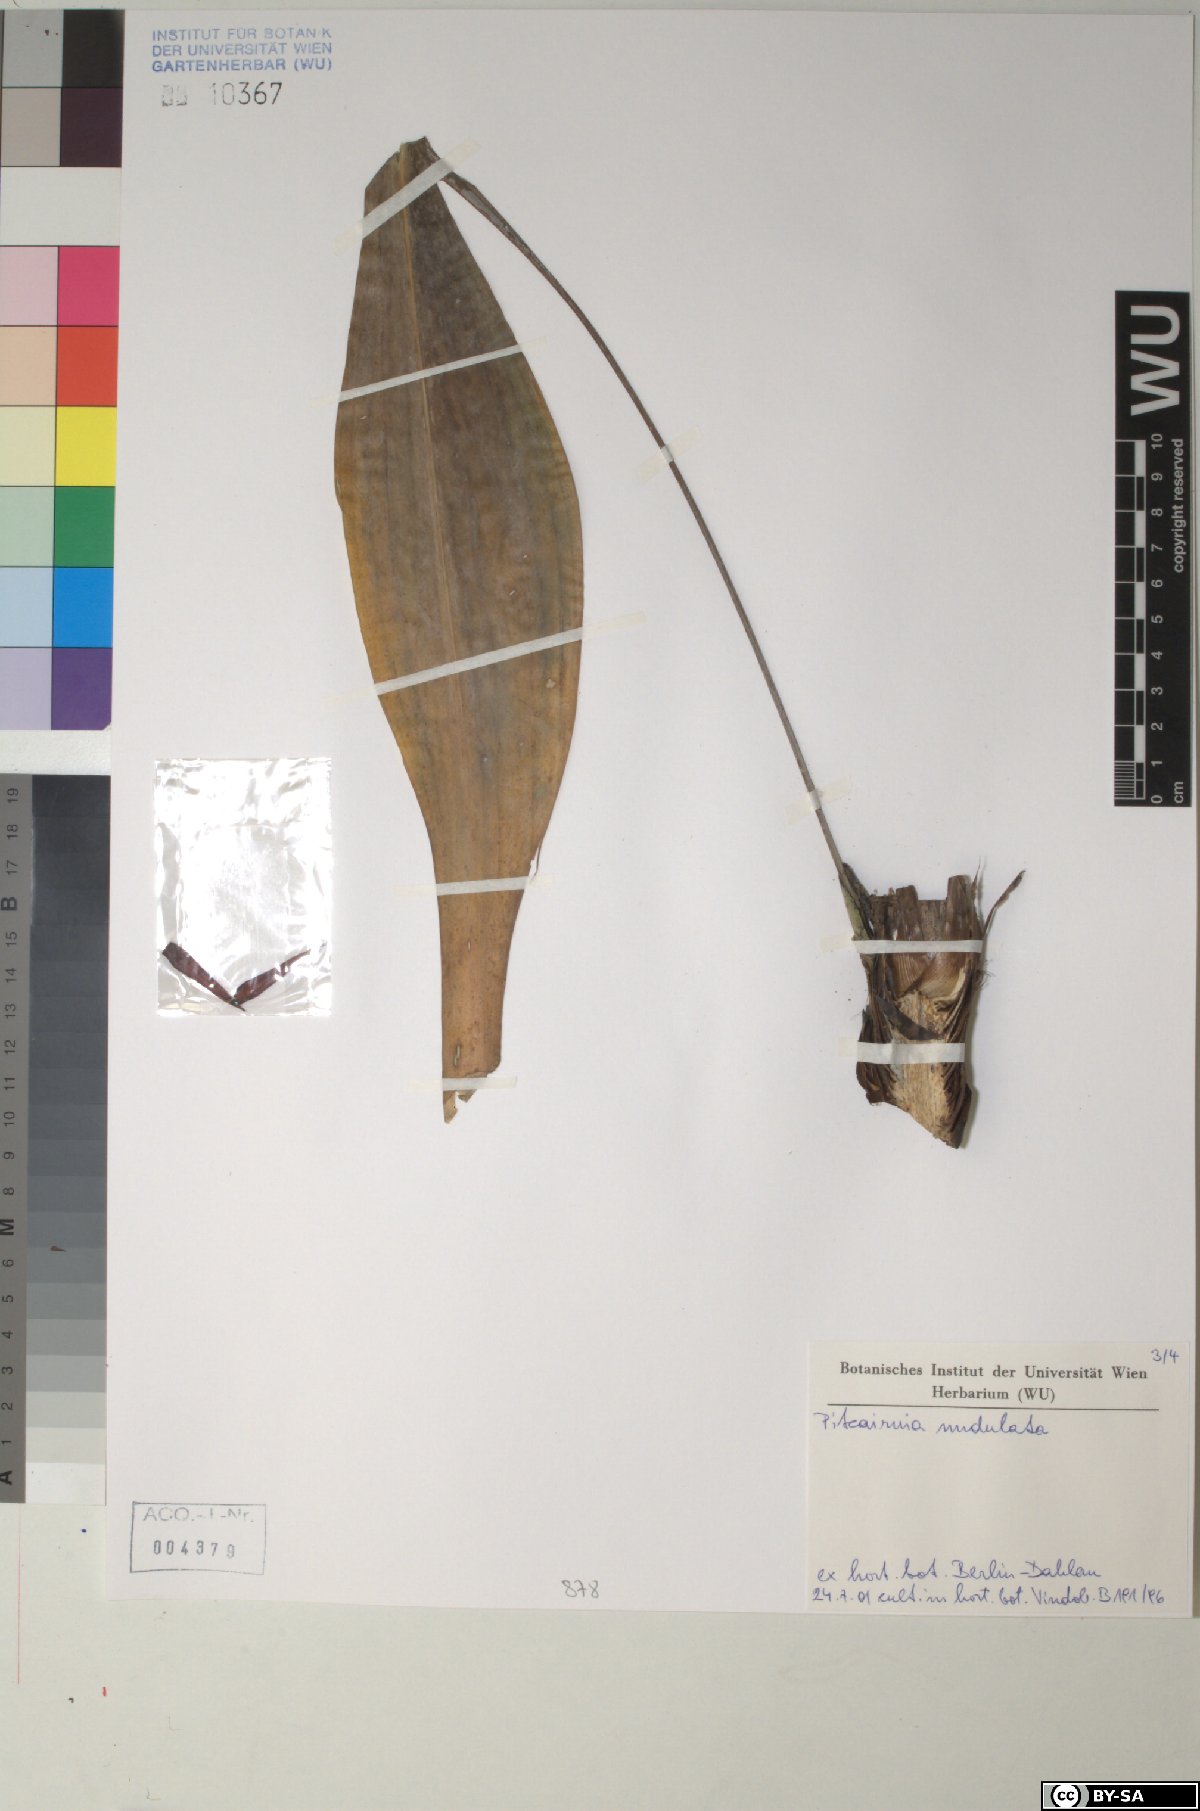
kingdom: Plantae
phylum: Tracheophyta
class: Liliopsida
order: Poales
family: Bromeliaceae
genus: Pitcairnia
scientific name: Pitcairnia
